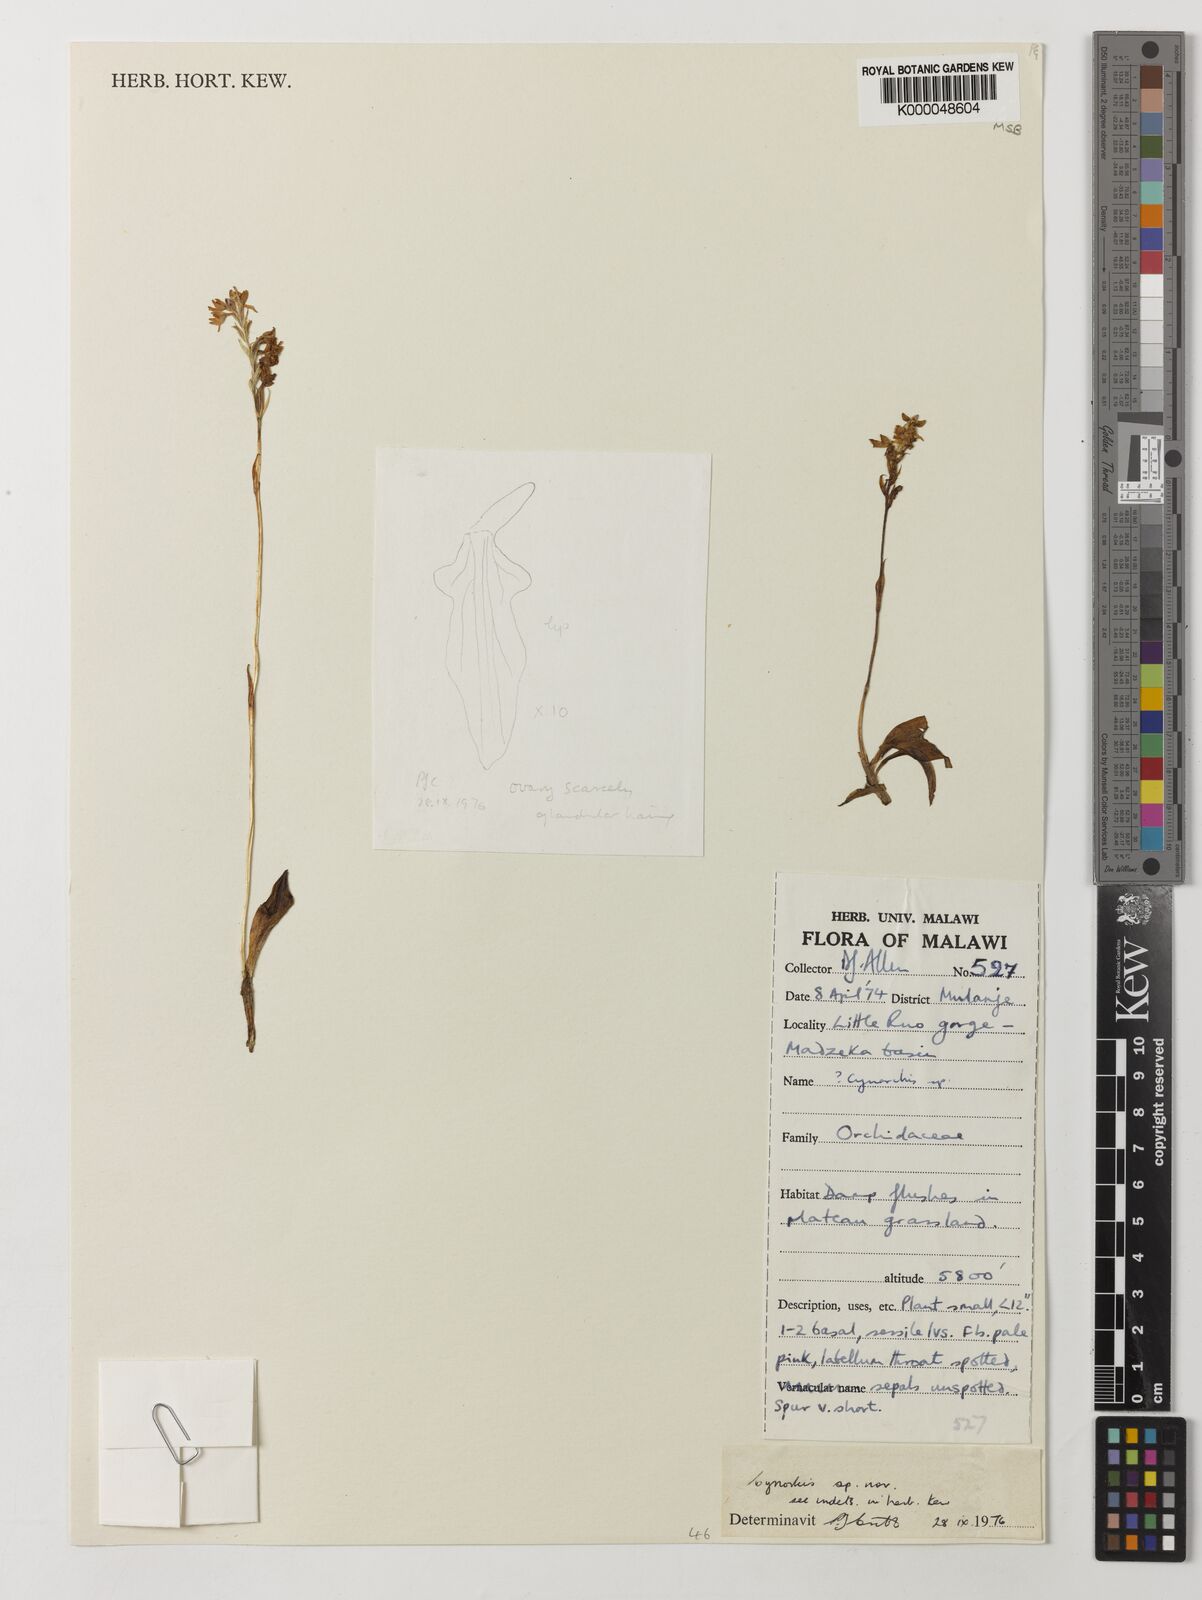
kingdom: Plantae
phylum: Tracheophyta
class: Liliopsida
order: Asparagales
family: Orchidaceae
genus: Cynorkis
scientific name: Cynorkis brevicalcar
